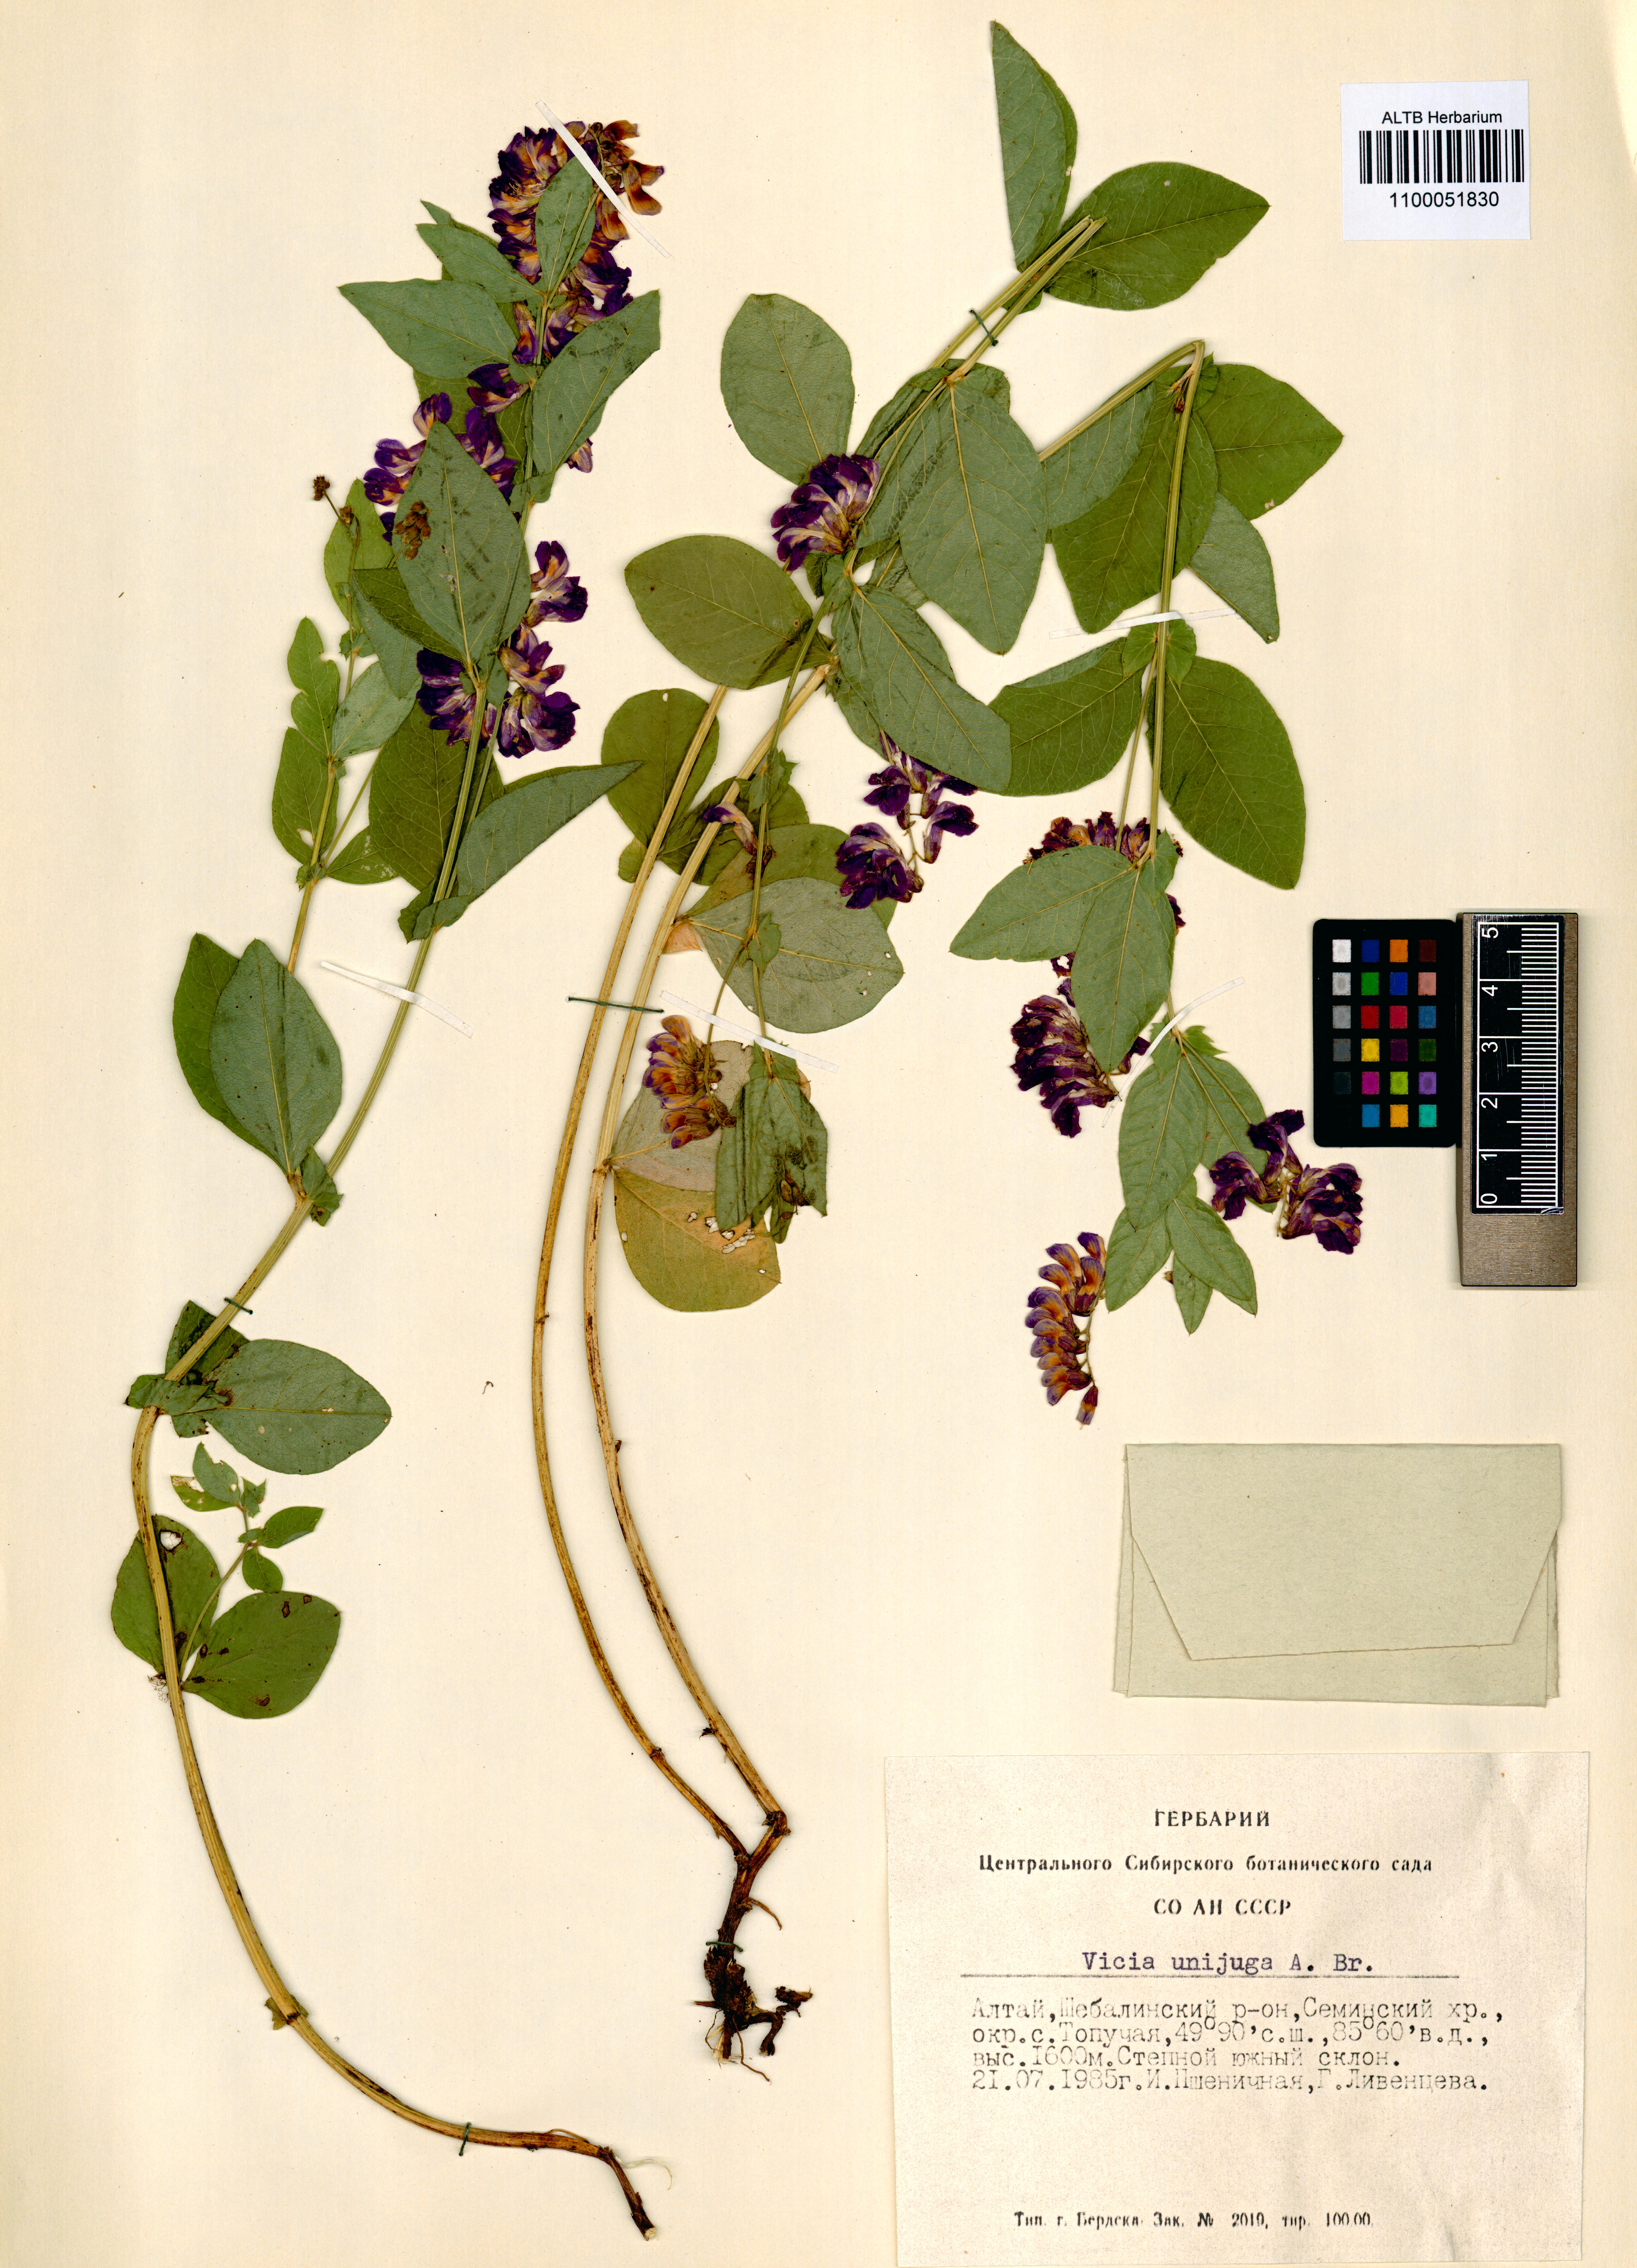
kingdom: Plantae
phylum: Tracheophyta
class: Magnoliopsida
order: Fabales
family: Fabaceae
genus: Vicia
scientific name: Vicia unijuga
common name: Two-leaf vetch
